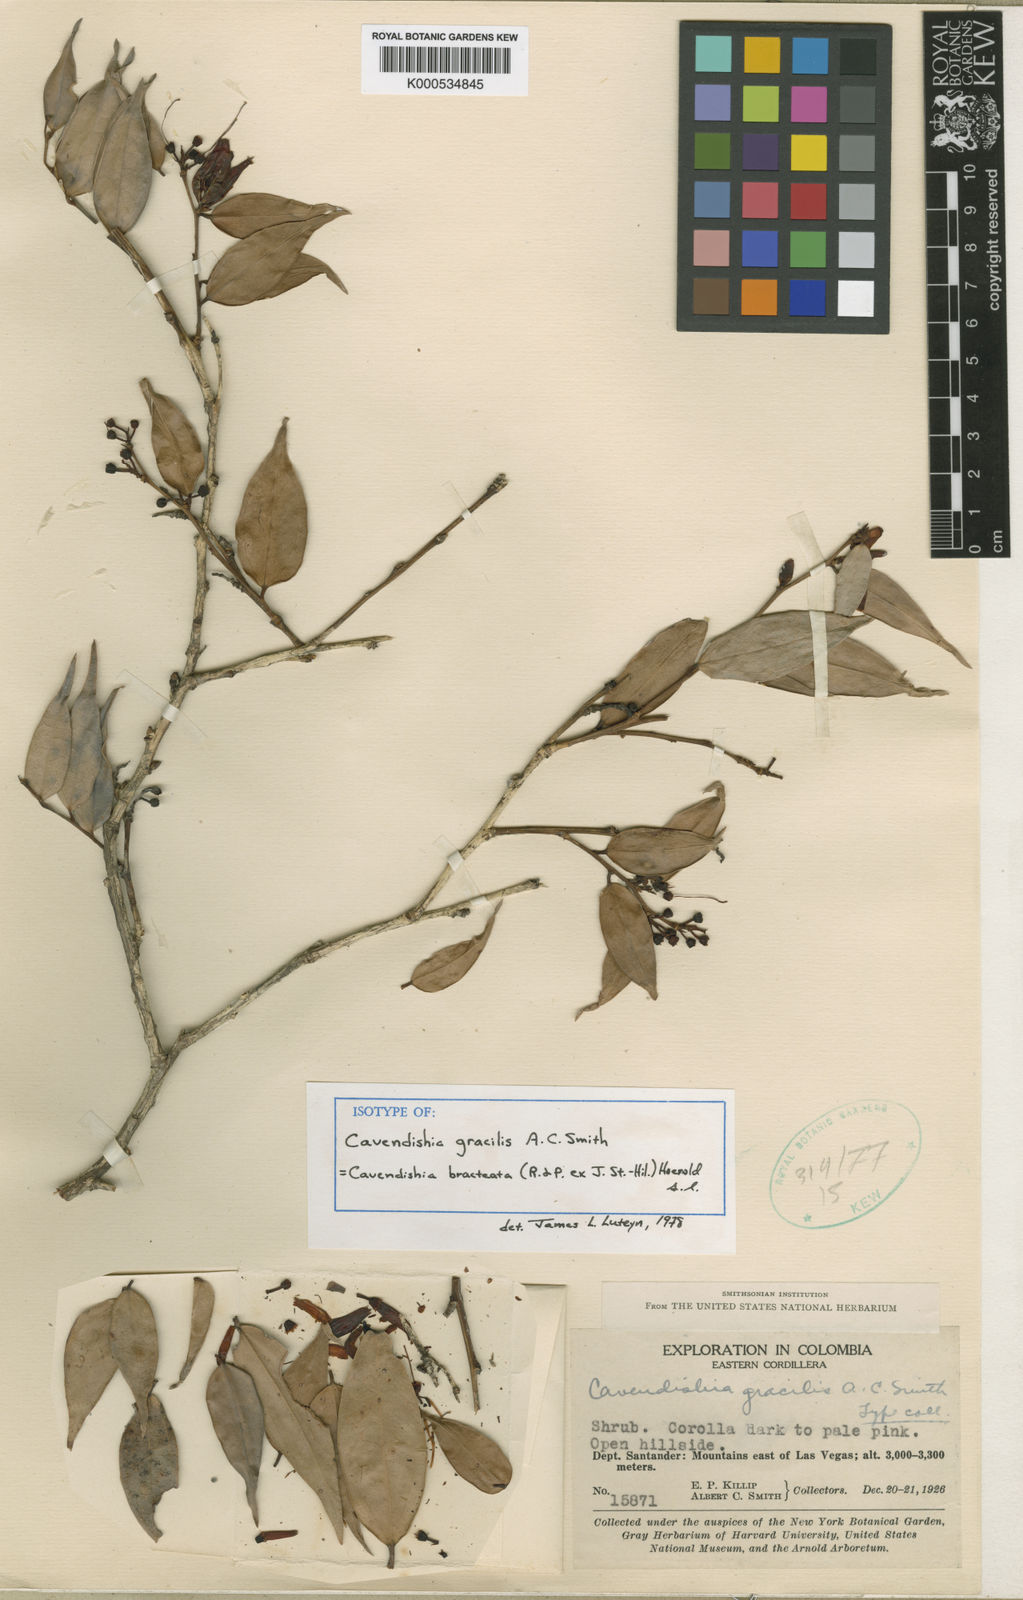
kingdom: Plantae
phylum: Tracheophyta
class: Magnoliopsida
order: Ericales
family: Ericaceae
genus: Cavendishia
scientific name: Cavendishia bracteata
